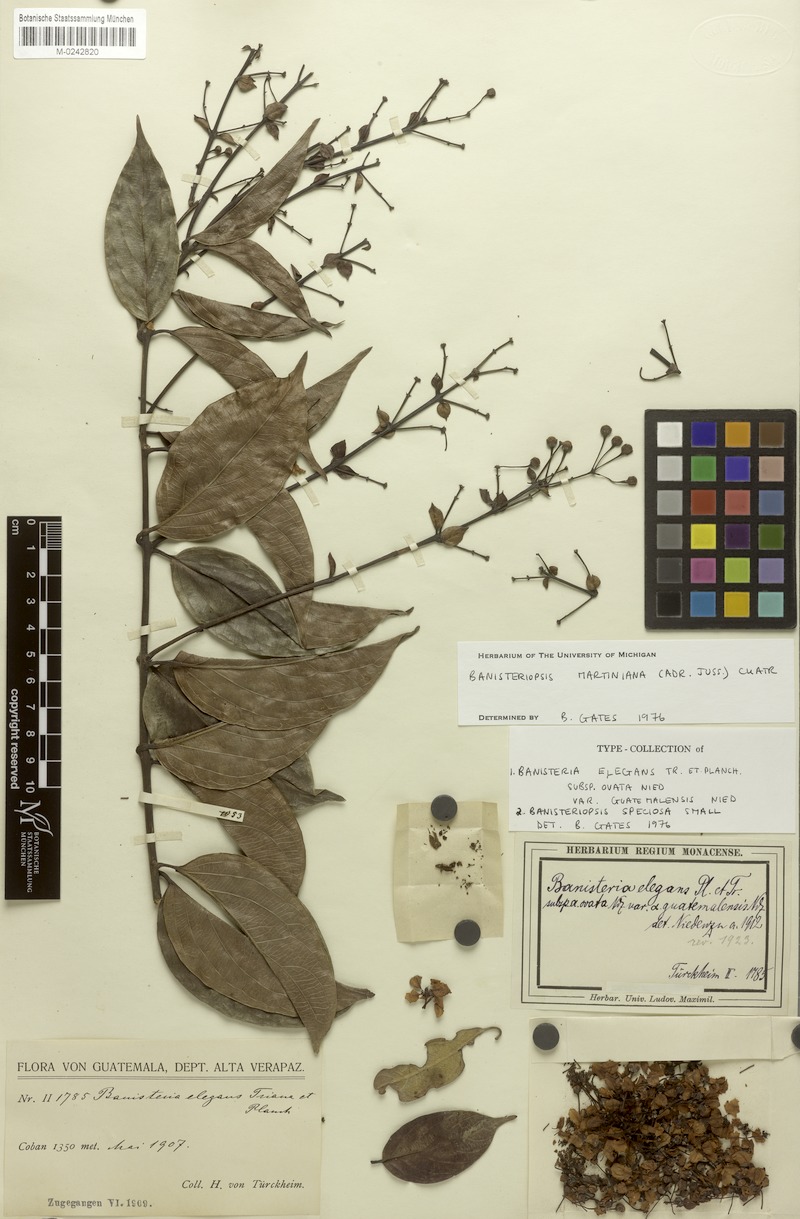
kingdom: Plantae
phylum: Tracheophyta
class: Magnoliopsida
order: Malpighiales
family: Malpighiaceae
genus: Banisteriopsis
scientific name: Banisteriopsis martiniana
